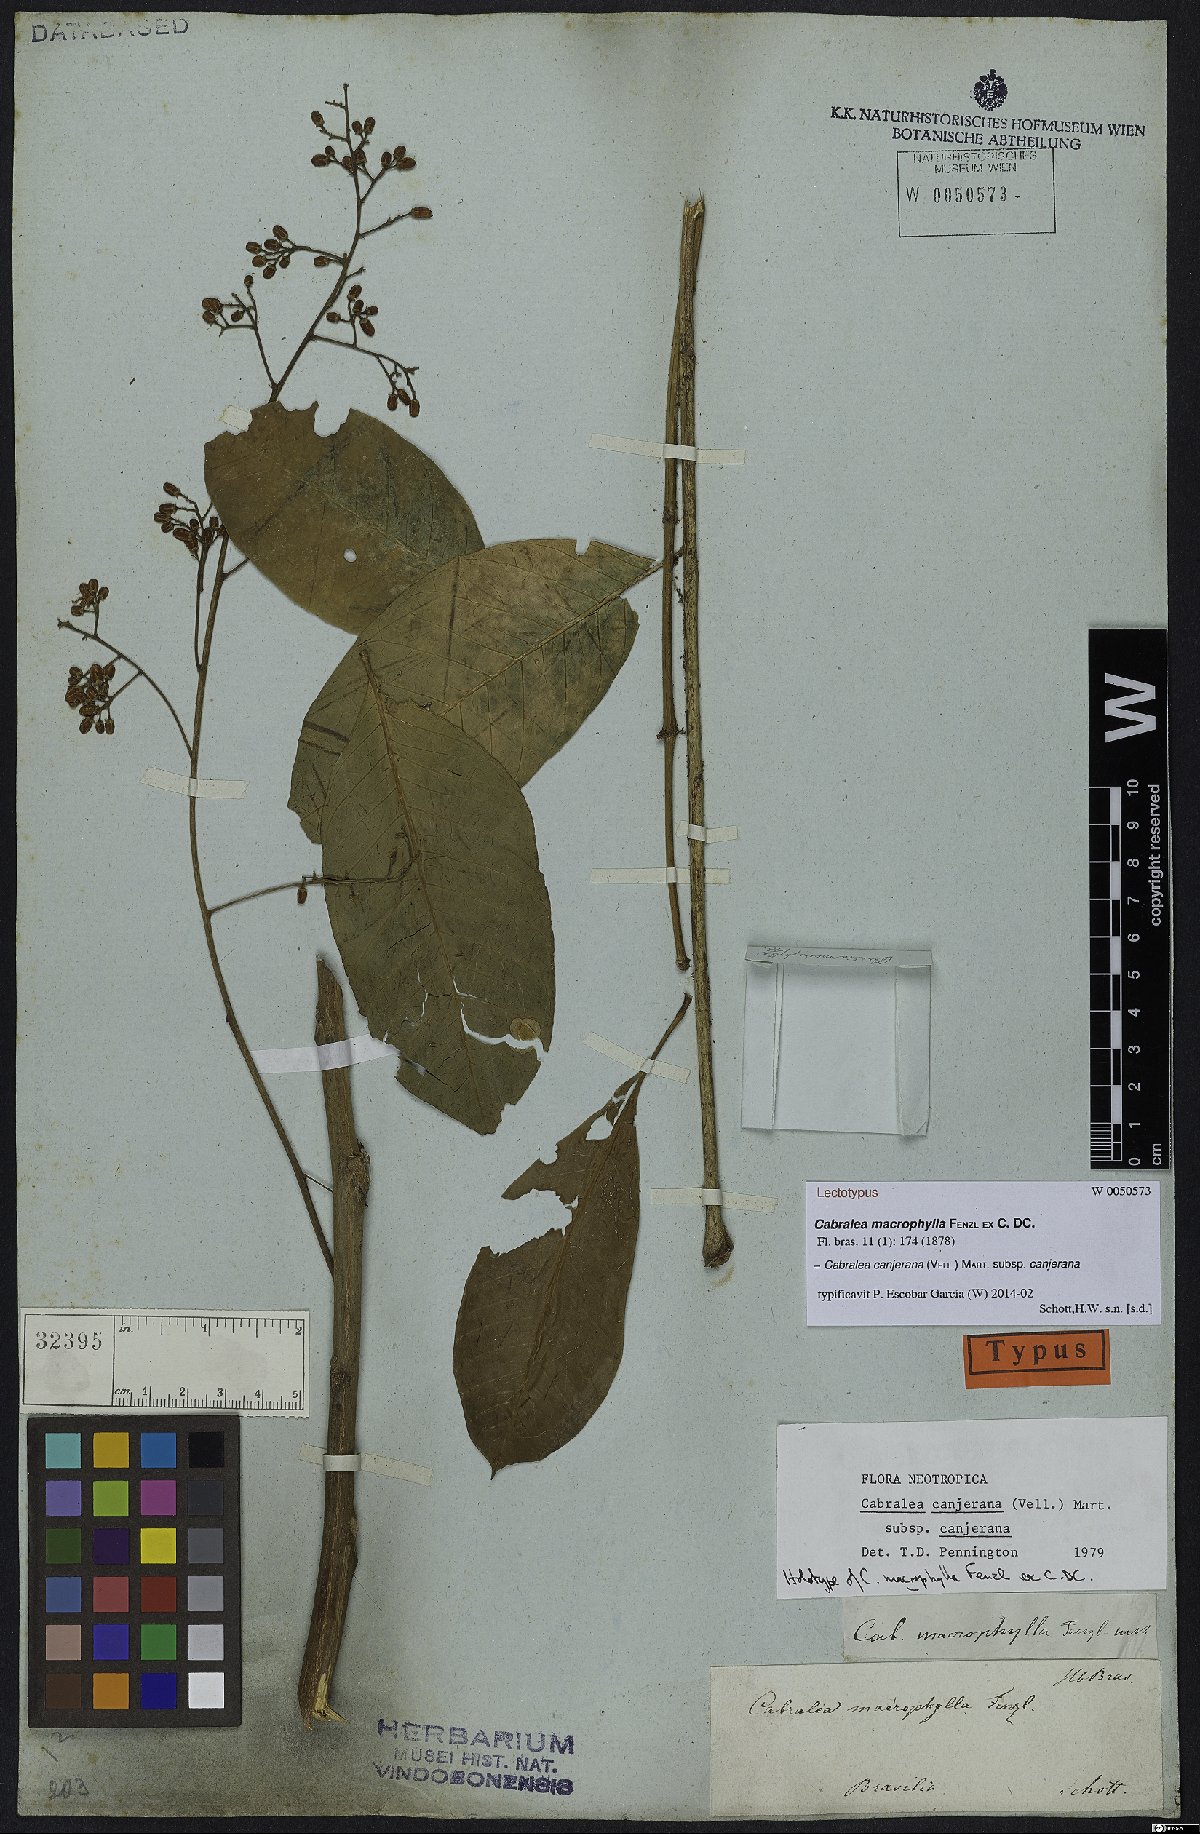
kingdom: Plantae
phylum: Tracheophyta
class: Magnoliopsida
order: Sapindales
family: Meliaceae
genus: Cabralea
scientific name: Cabralea canjerana
